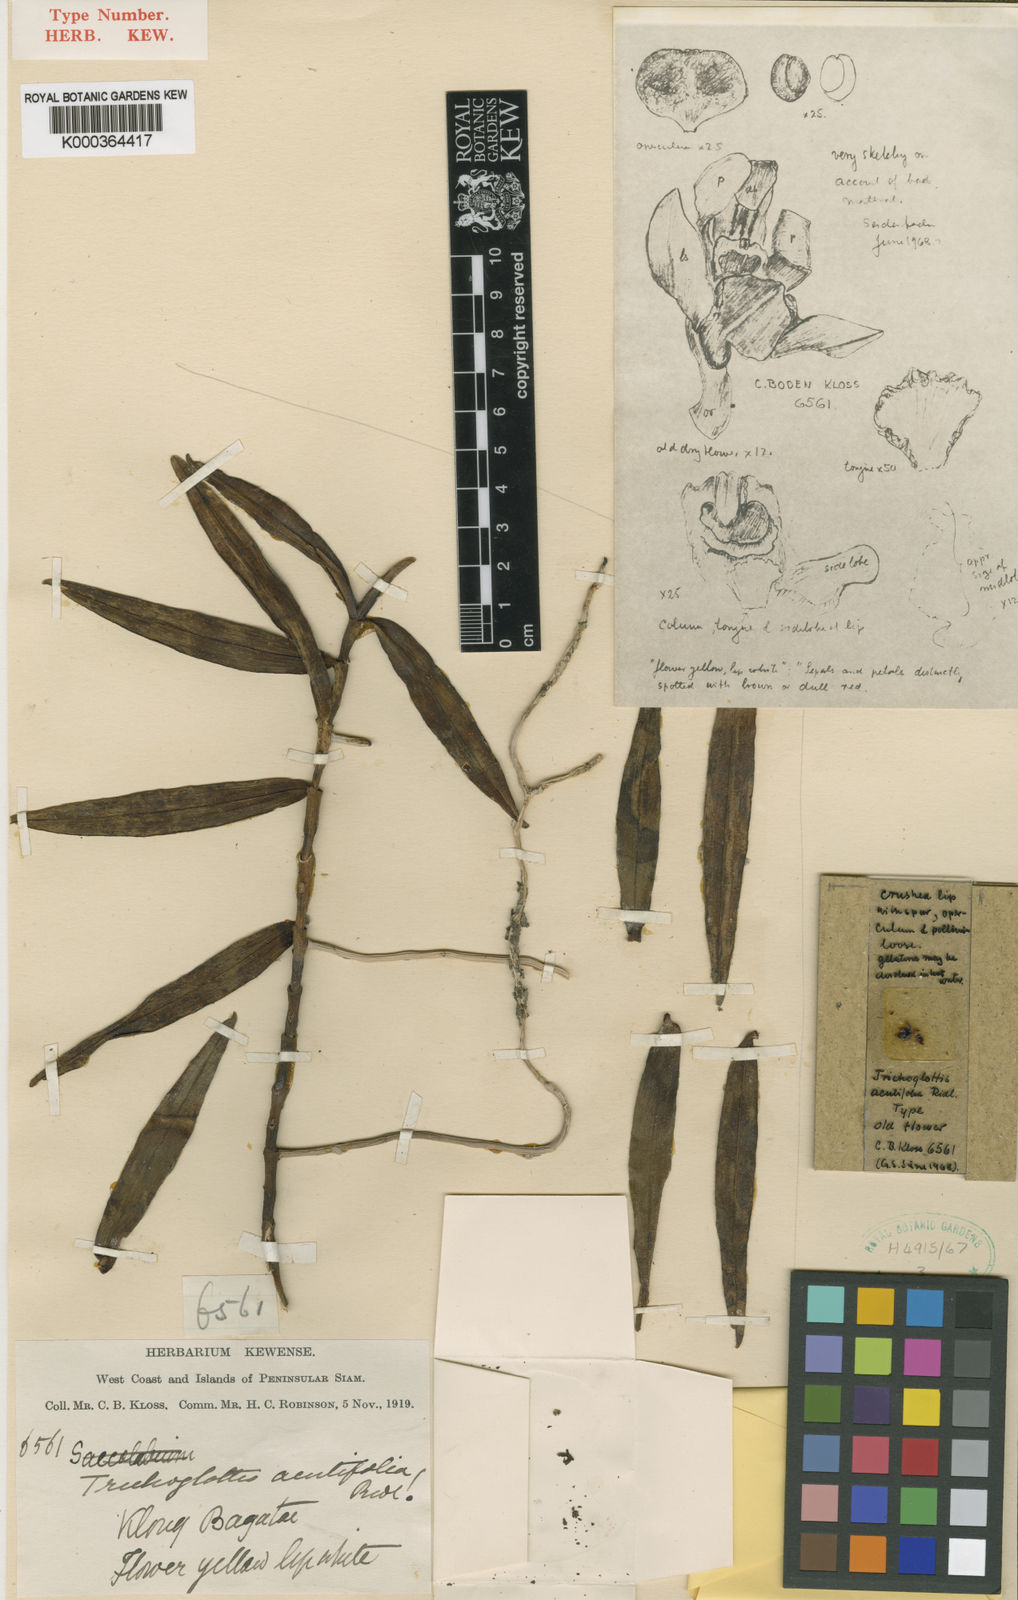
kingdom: Plantae
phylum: Tracheophyta
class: Liliopsida
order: Asparagales
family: Orchidaceae
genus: Trichoglottis
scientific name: Trichoglottis acutifolia
